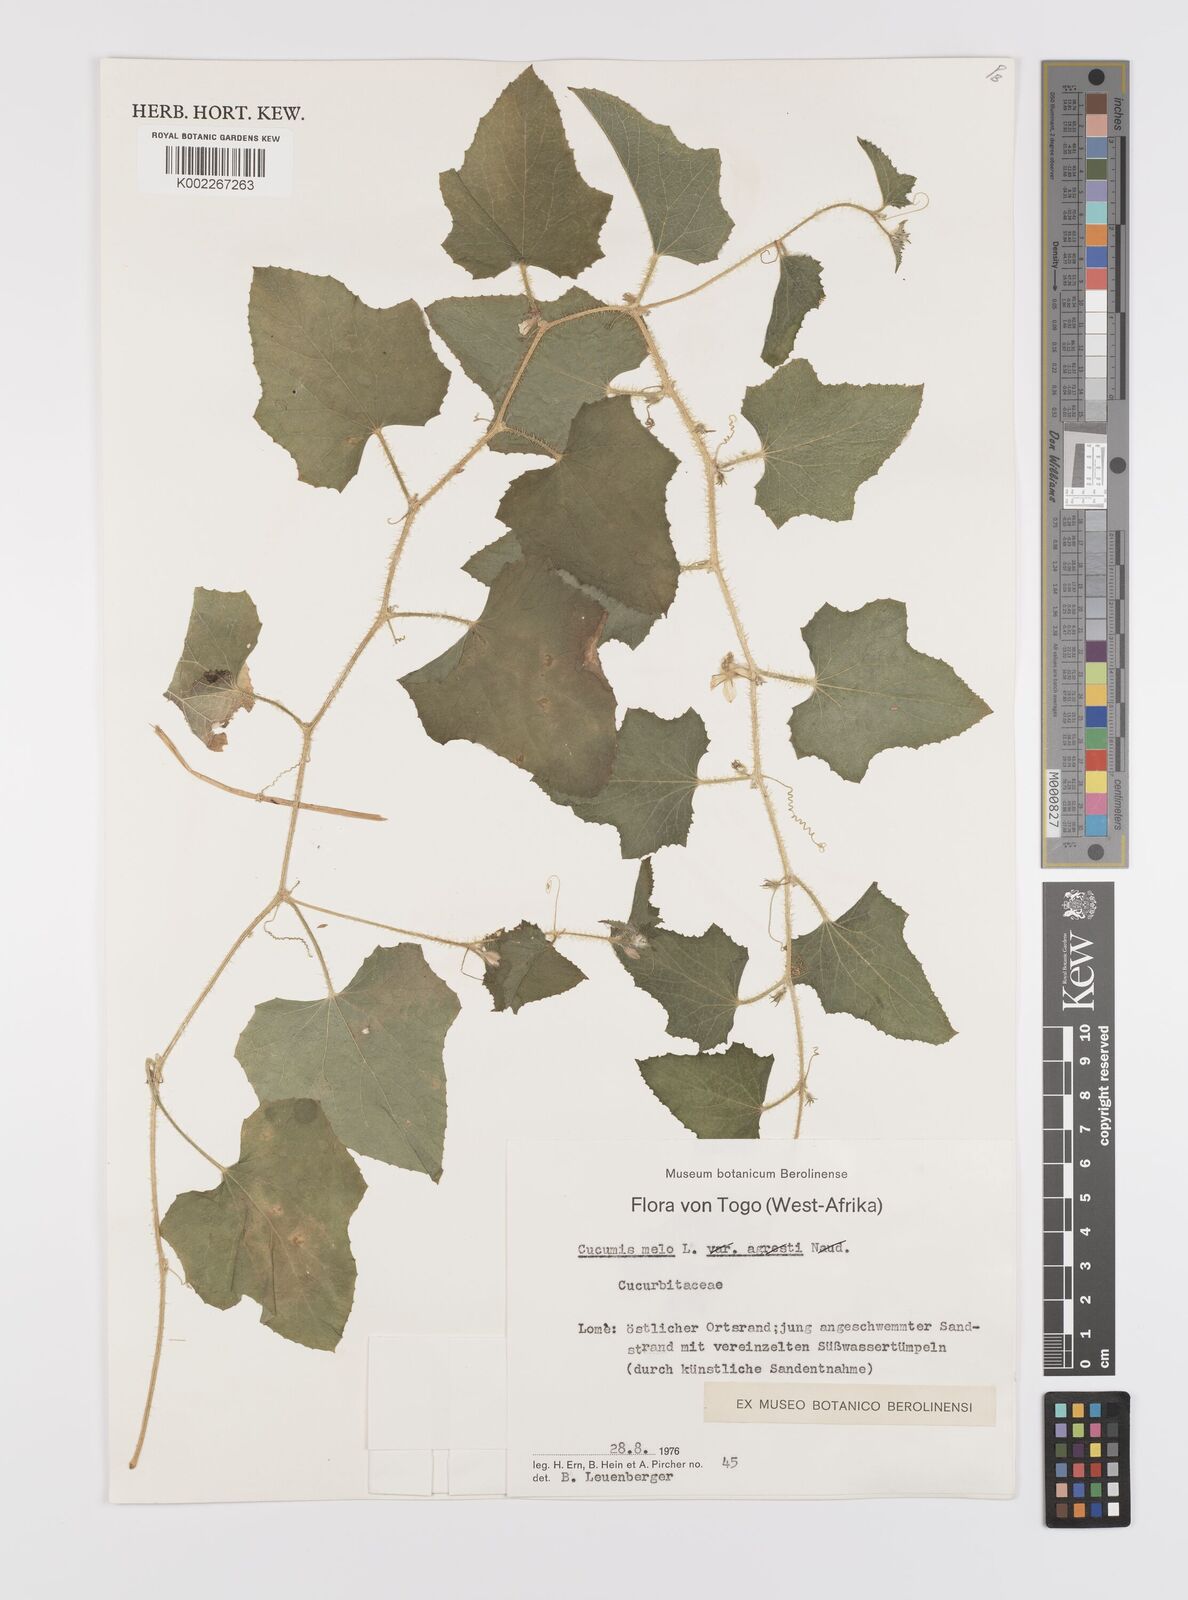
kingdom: Plantae
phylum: Tracheophyta
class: Magnoliopsida
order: Cucurbitales
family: Cucurbitaceae
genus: Cucumis
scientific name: Cucumis melo
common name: Melon
